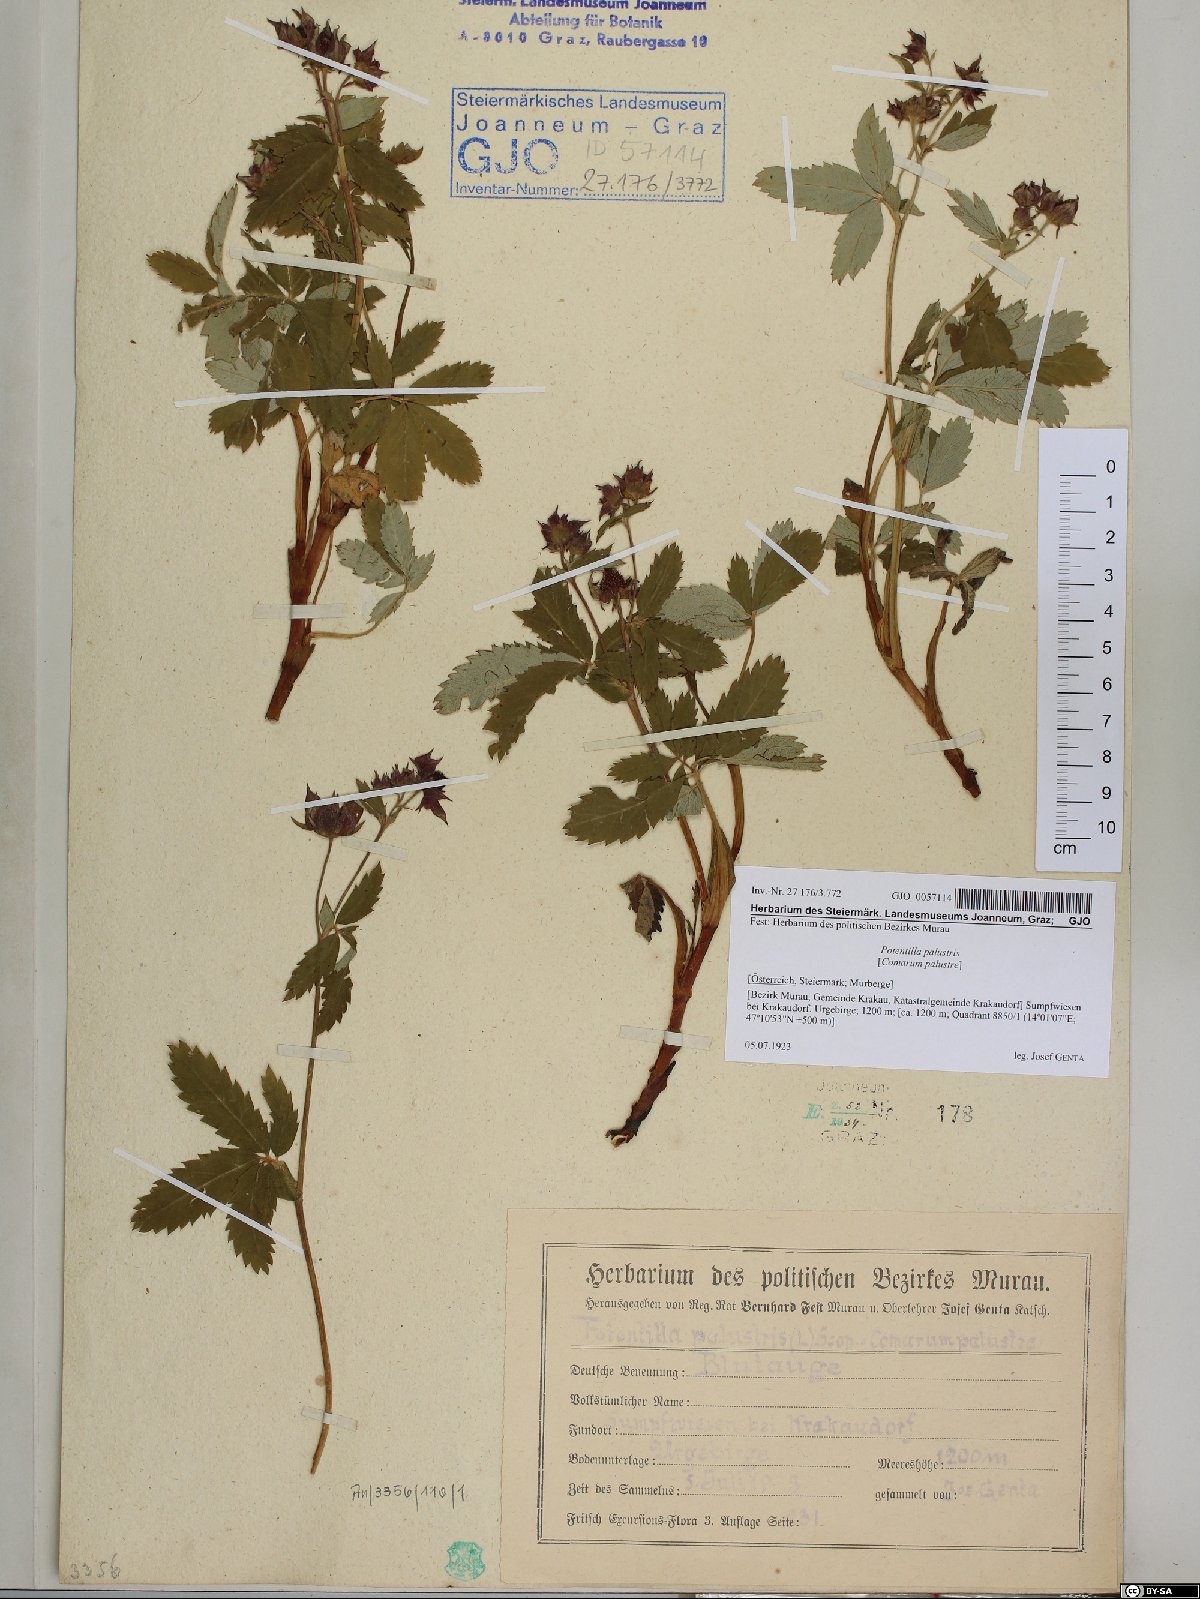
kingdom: Plantae
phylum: Tracheophyta
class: Magnoliopsida
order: Rosales
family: Rosaceae
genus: Comarum
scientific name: Comarum palustre
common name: Marsh cinquefoil
